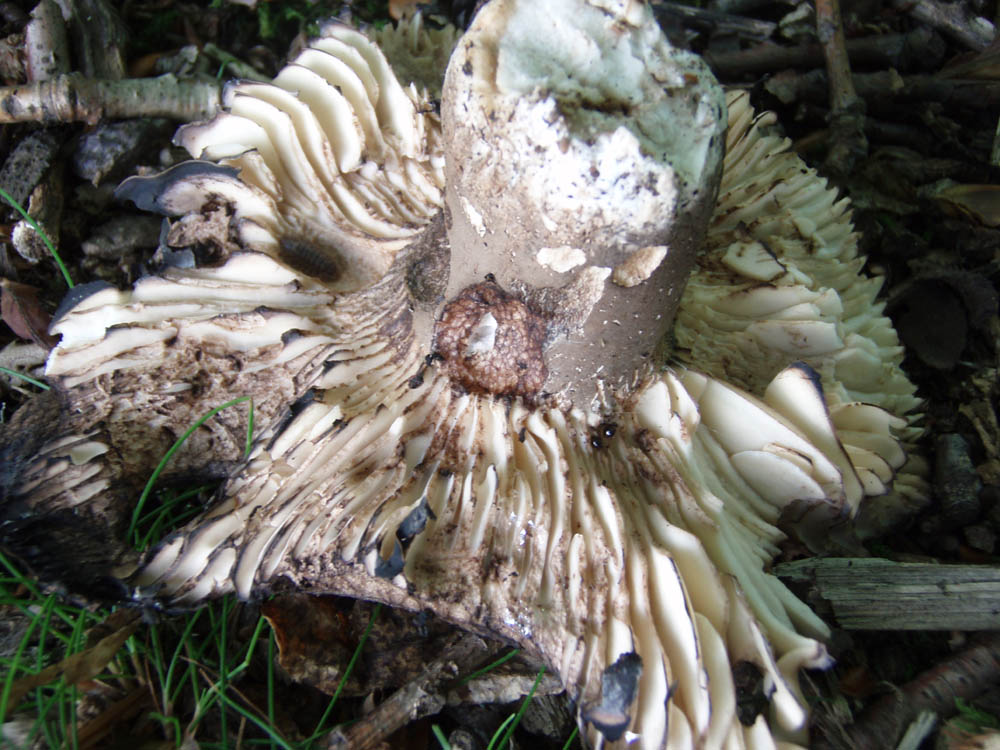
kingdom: Fungi
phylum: Basidiomycota
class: Agaricomycetes
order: Russulales
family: Russulaceae
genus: Russula
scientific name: Russula adusta
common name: sværtende skørhat
